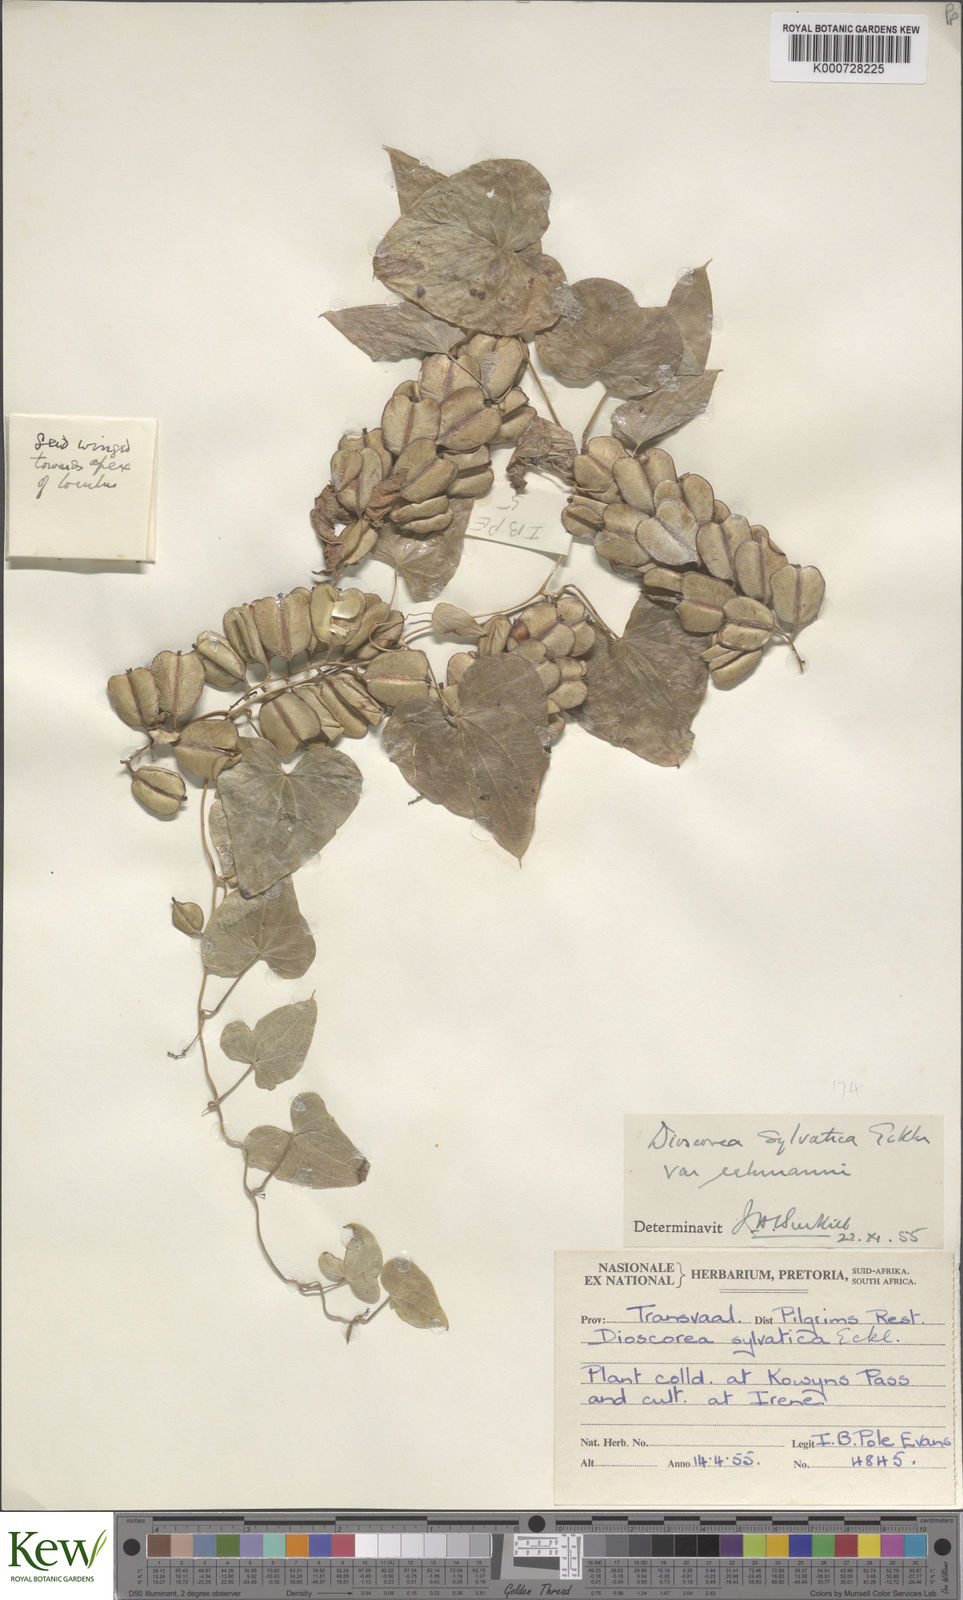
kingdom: Plantae
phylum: Tracheophyta
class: Liliopsida
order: Dioscoreales
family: Dioscoreaceae
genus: Dioscorea
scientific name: Dioscorea sylvatica
